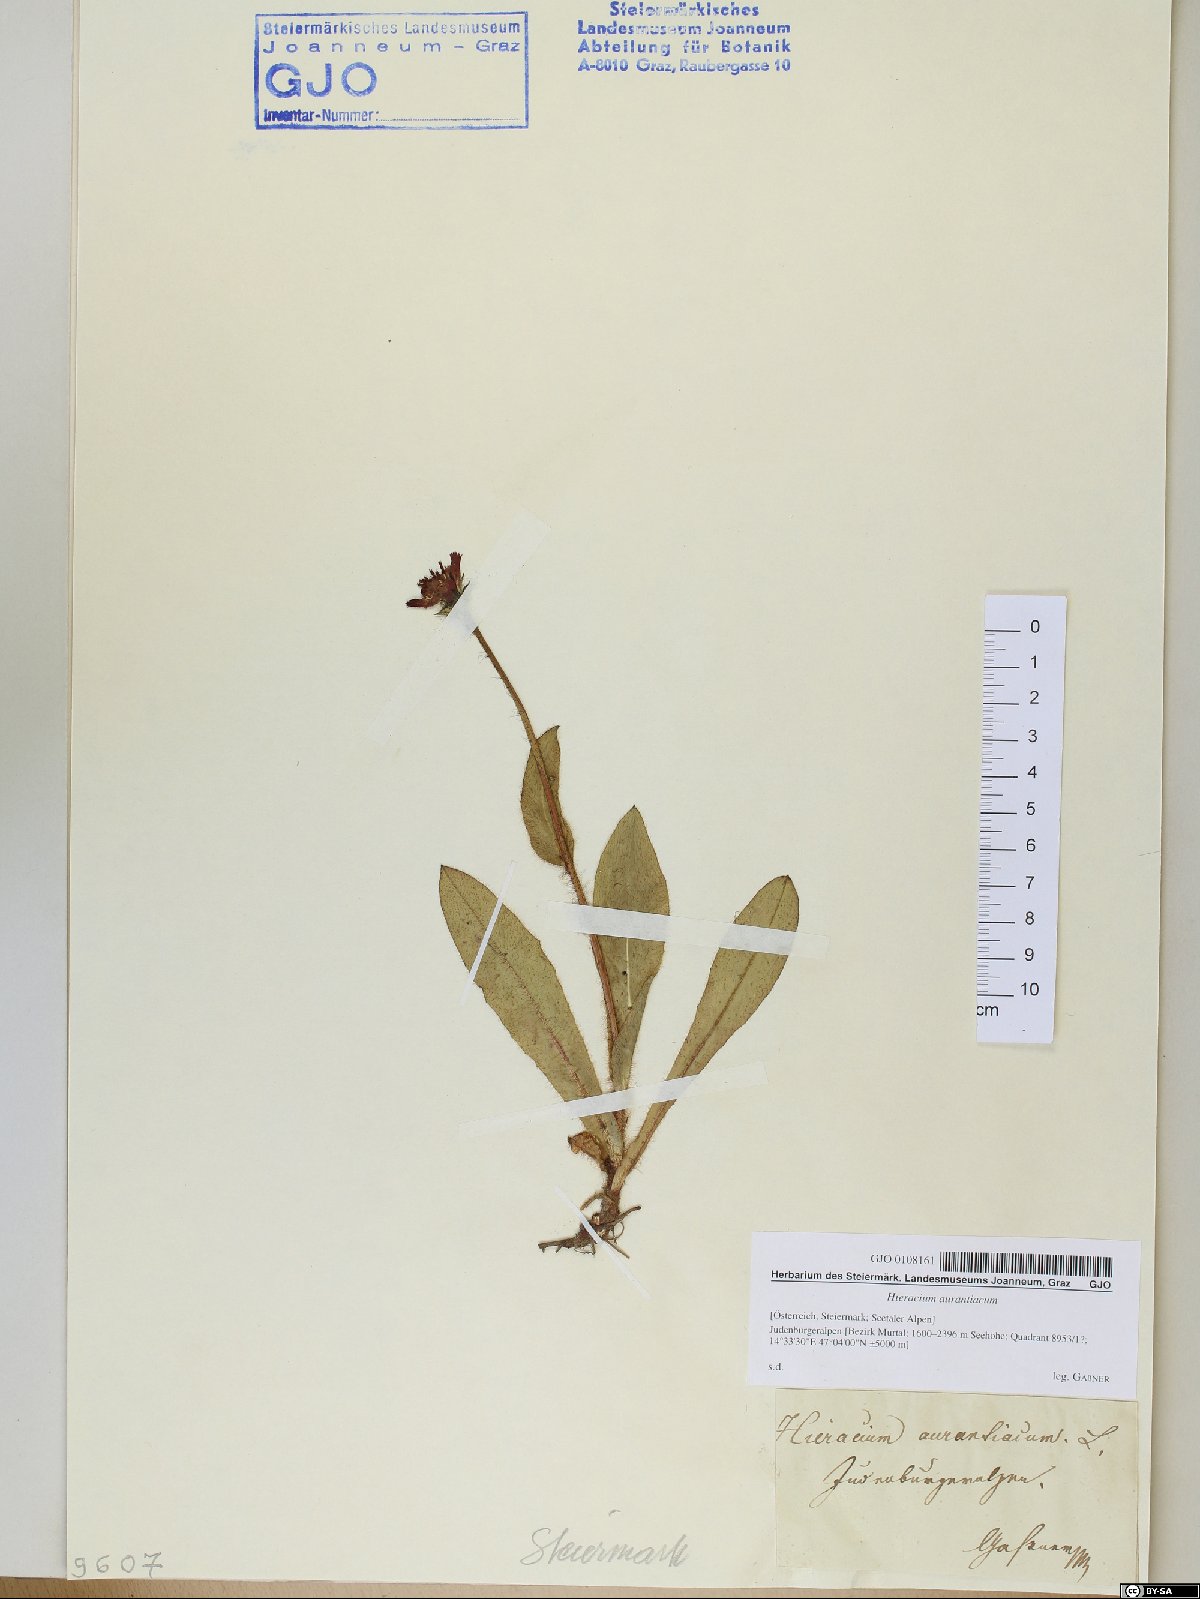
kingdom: Plantae
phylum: Tracheophyta
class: Magnoliopsida
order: Asterales
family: Asteraceae
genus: Pilosella
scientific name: Pilosella aurantiaca
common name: Fox-and-cubs
